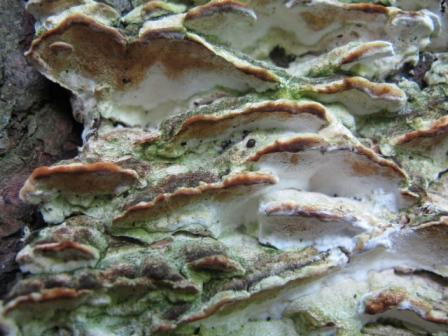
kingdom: Fungi
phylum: Basidiomycota
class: Agaricomycetes
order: Hymenochaetales
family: Oxyporaceae
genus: Oxyporus
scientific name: Oxyporus populinus
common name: sammenvokset trylleporesvamp
